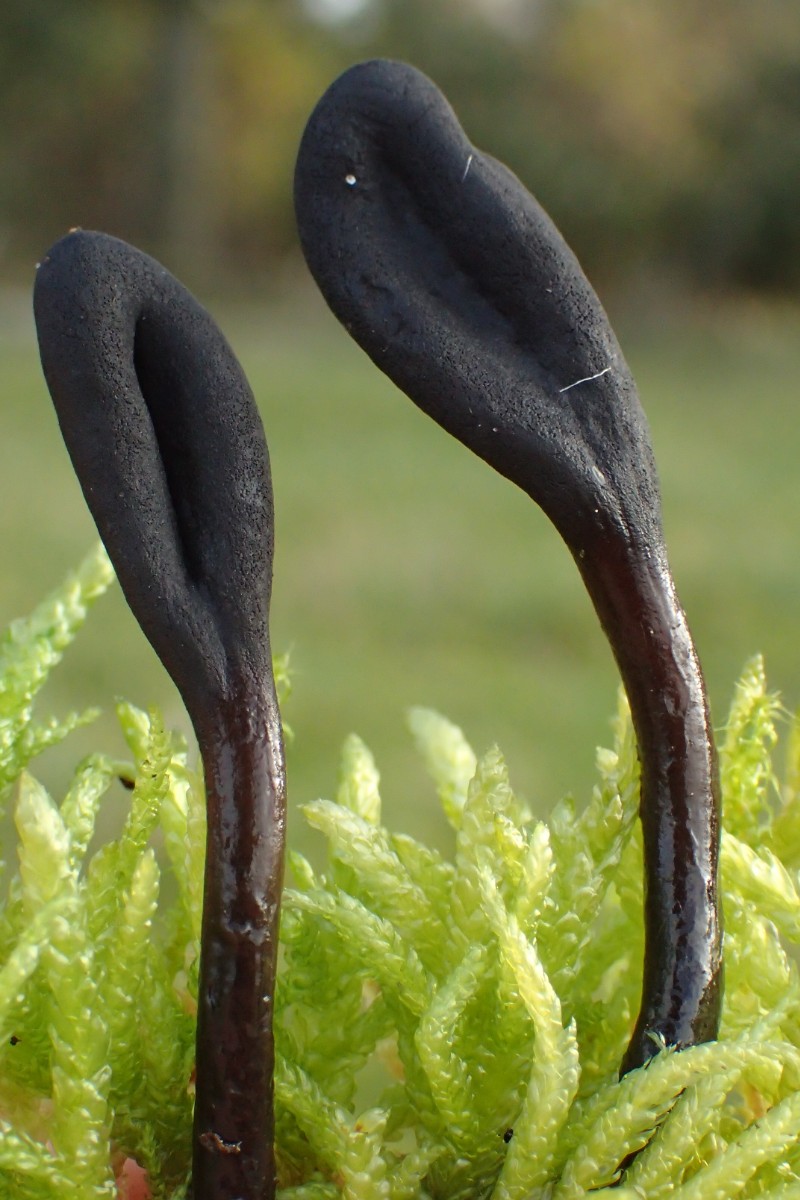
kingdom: Fungi
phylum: Ascomycota
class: Geoglossomycetes
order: Geoglossales
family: Geoglossaceae
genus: Glutinoglossum
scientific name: Glutinoglossum glutinosum
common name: slimet jordtunge
